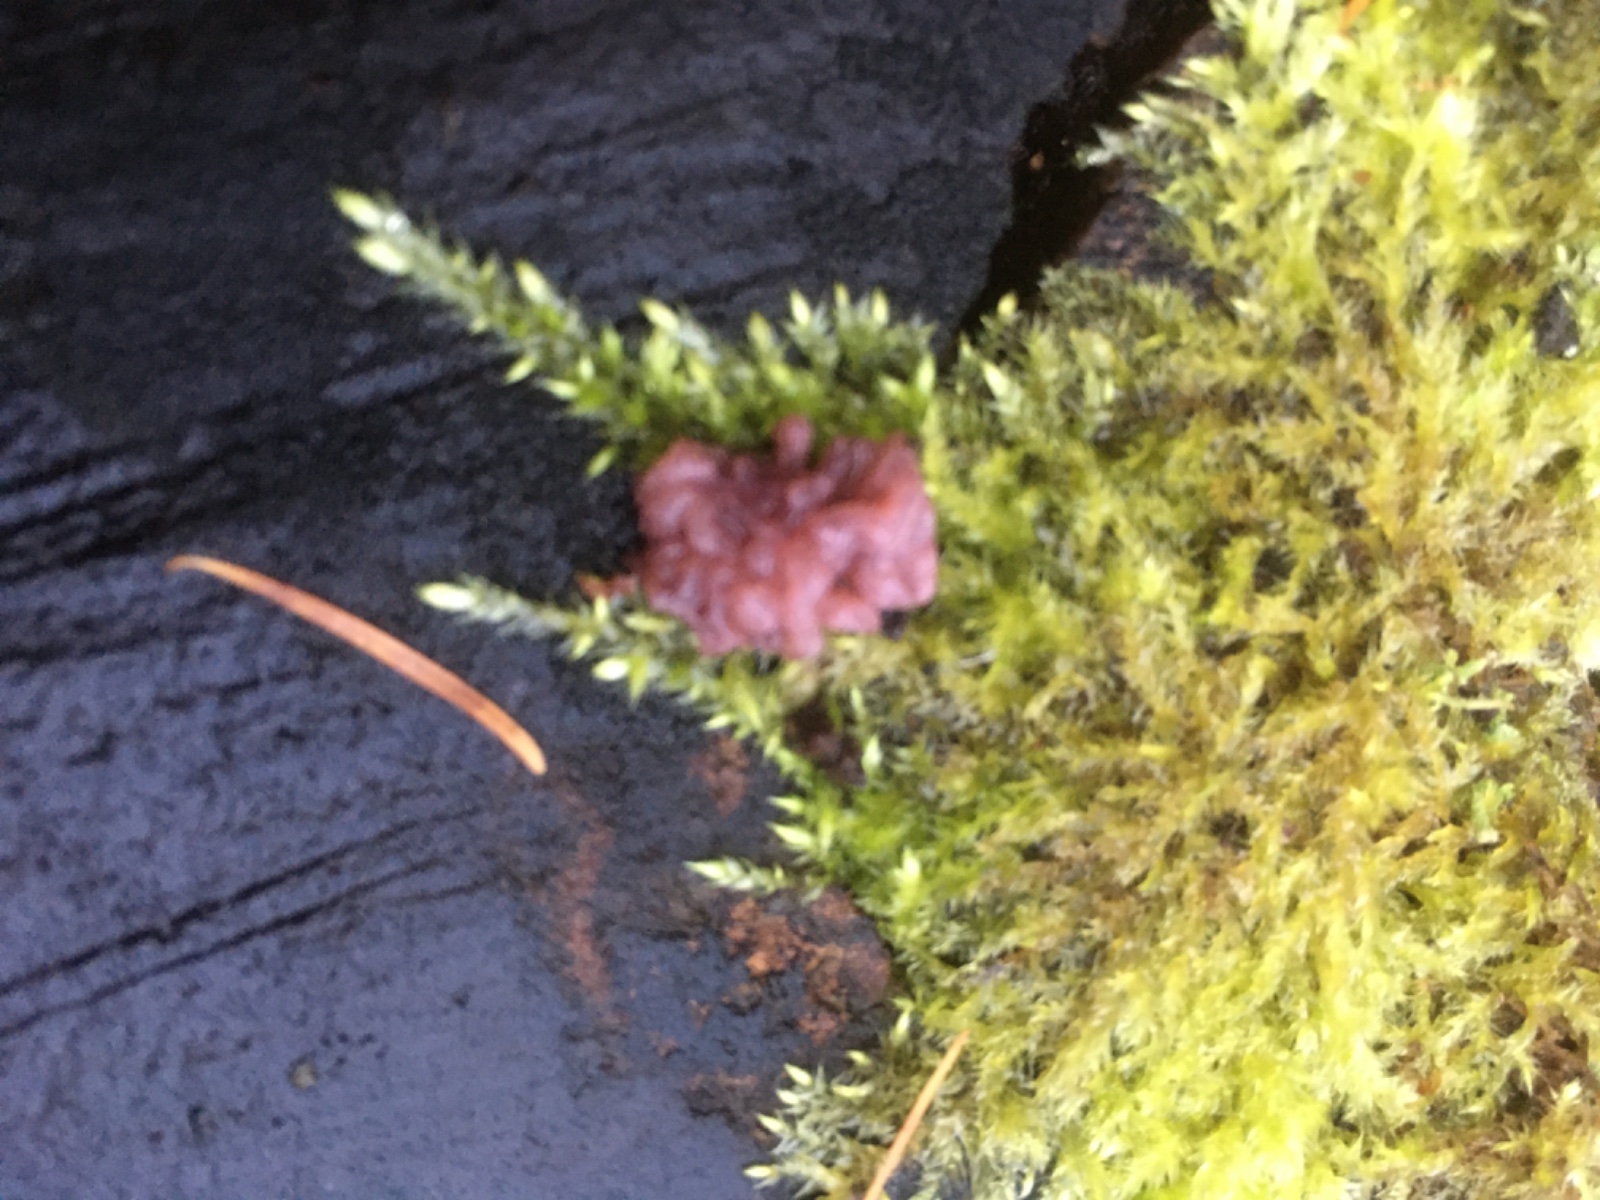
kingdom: Fungi
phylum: Ascomycota
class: Leotiomycetes
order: Helotiales
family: Gelatinodiscaceae
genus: Ascocoryne
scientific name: Ascocoryne sarcoides
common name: rødlilla sejskive
